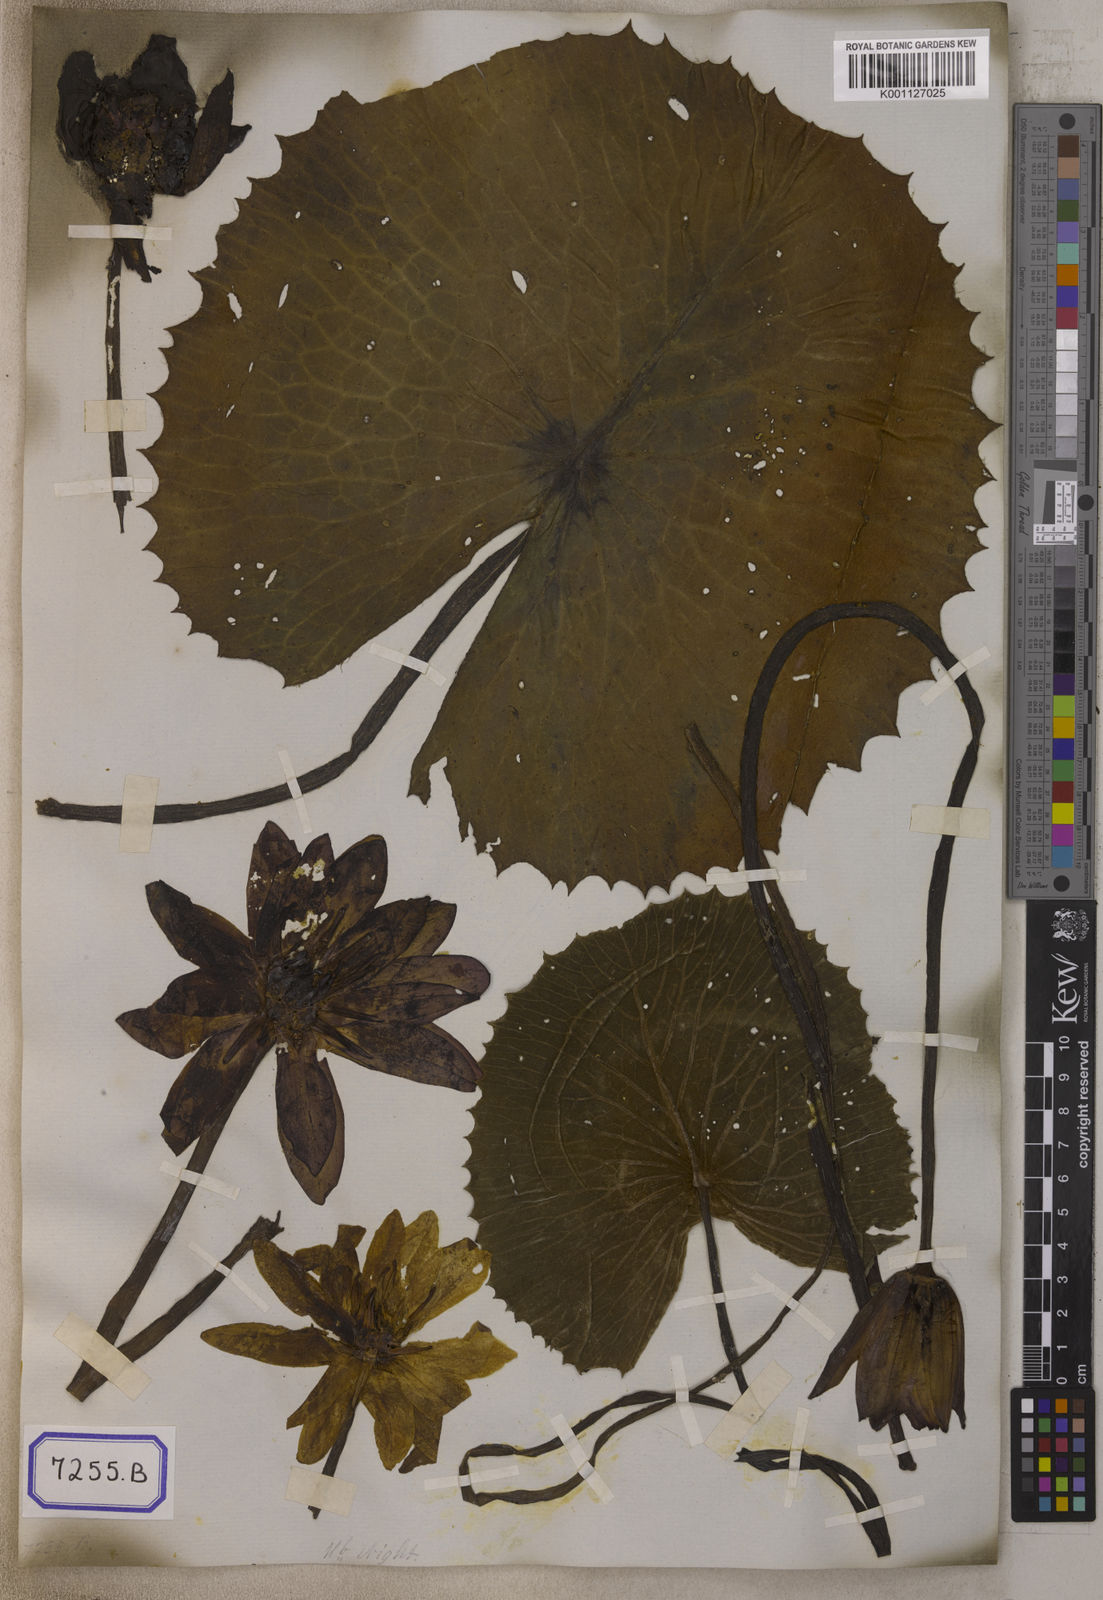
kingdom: Plantae
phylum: Tracheophyta
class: Magnoliopsida
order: Nymphaeales
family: Nymphaeaceae
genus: Nymphaea
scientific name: Nymphaea
